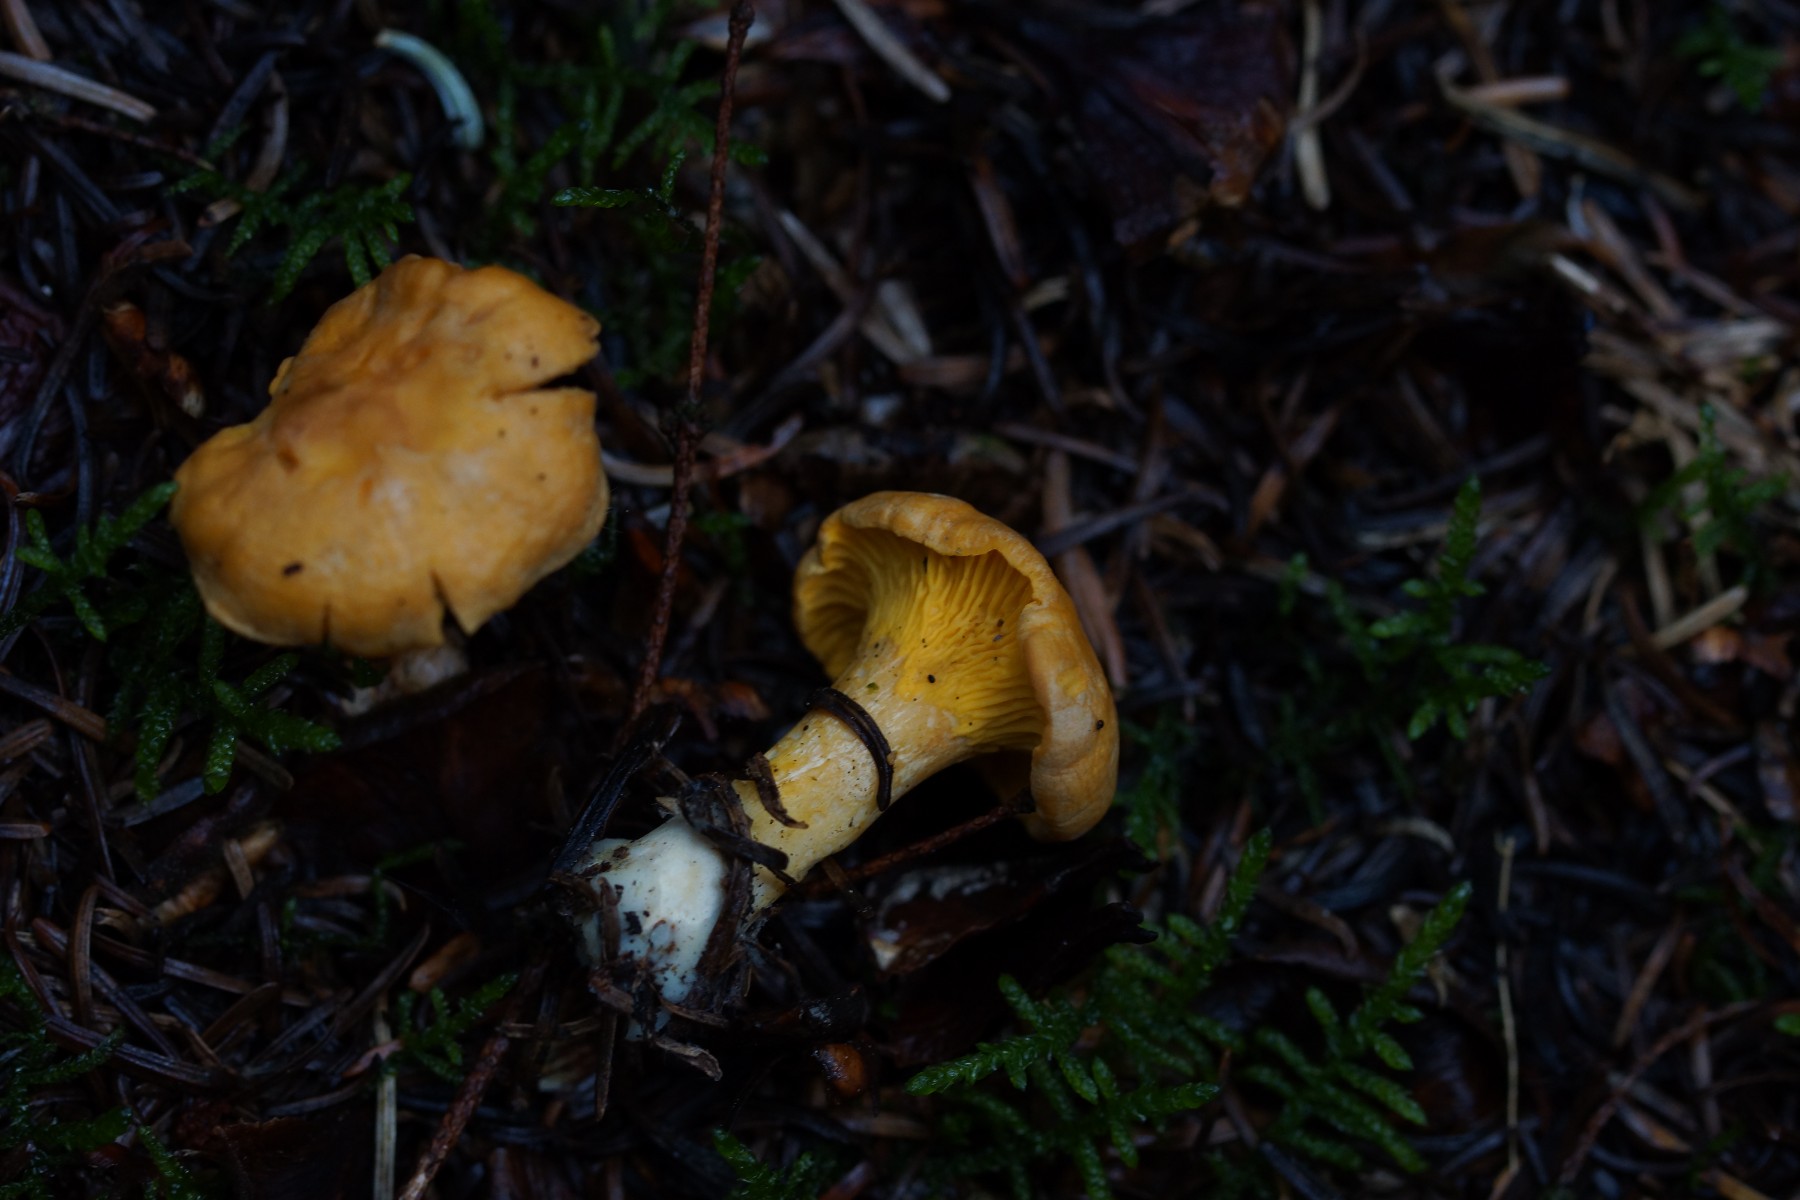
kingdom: Fungi
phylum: Basidiomycota
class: Agaricomycetes
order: Cantharellales
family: Hydnaceae
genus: Cantharellus
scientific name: Cantharellus cibarius
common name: almindelig kantarel
